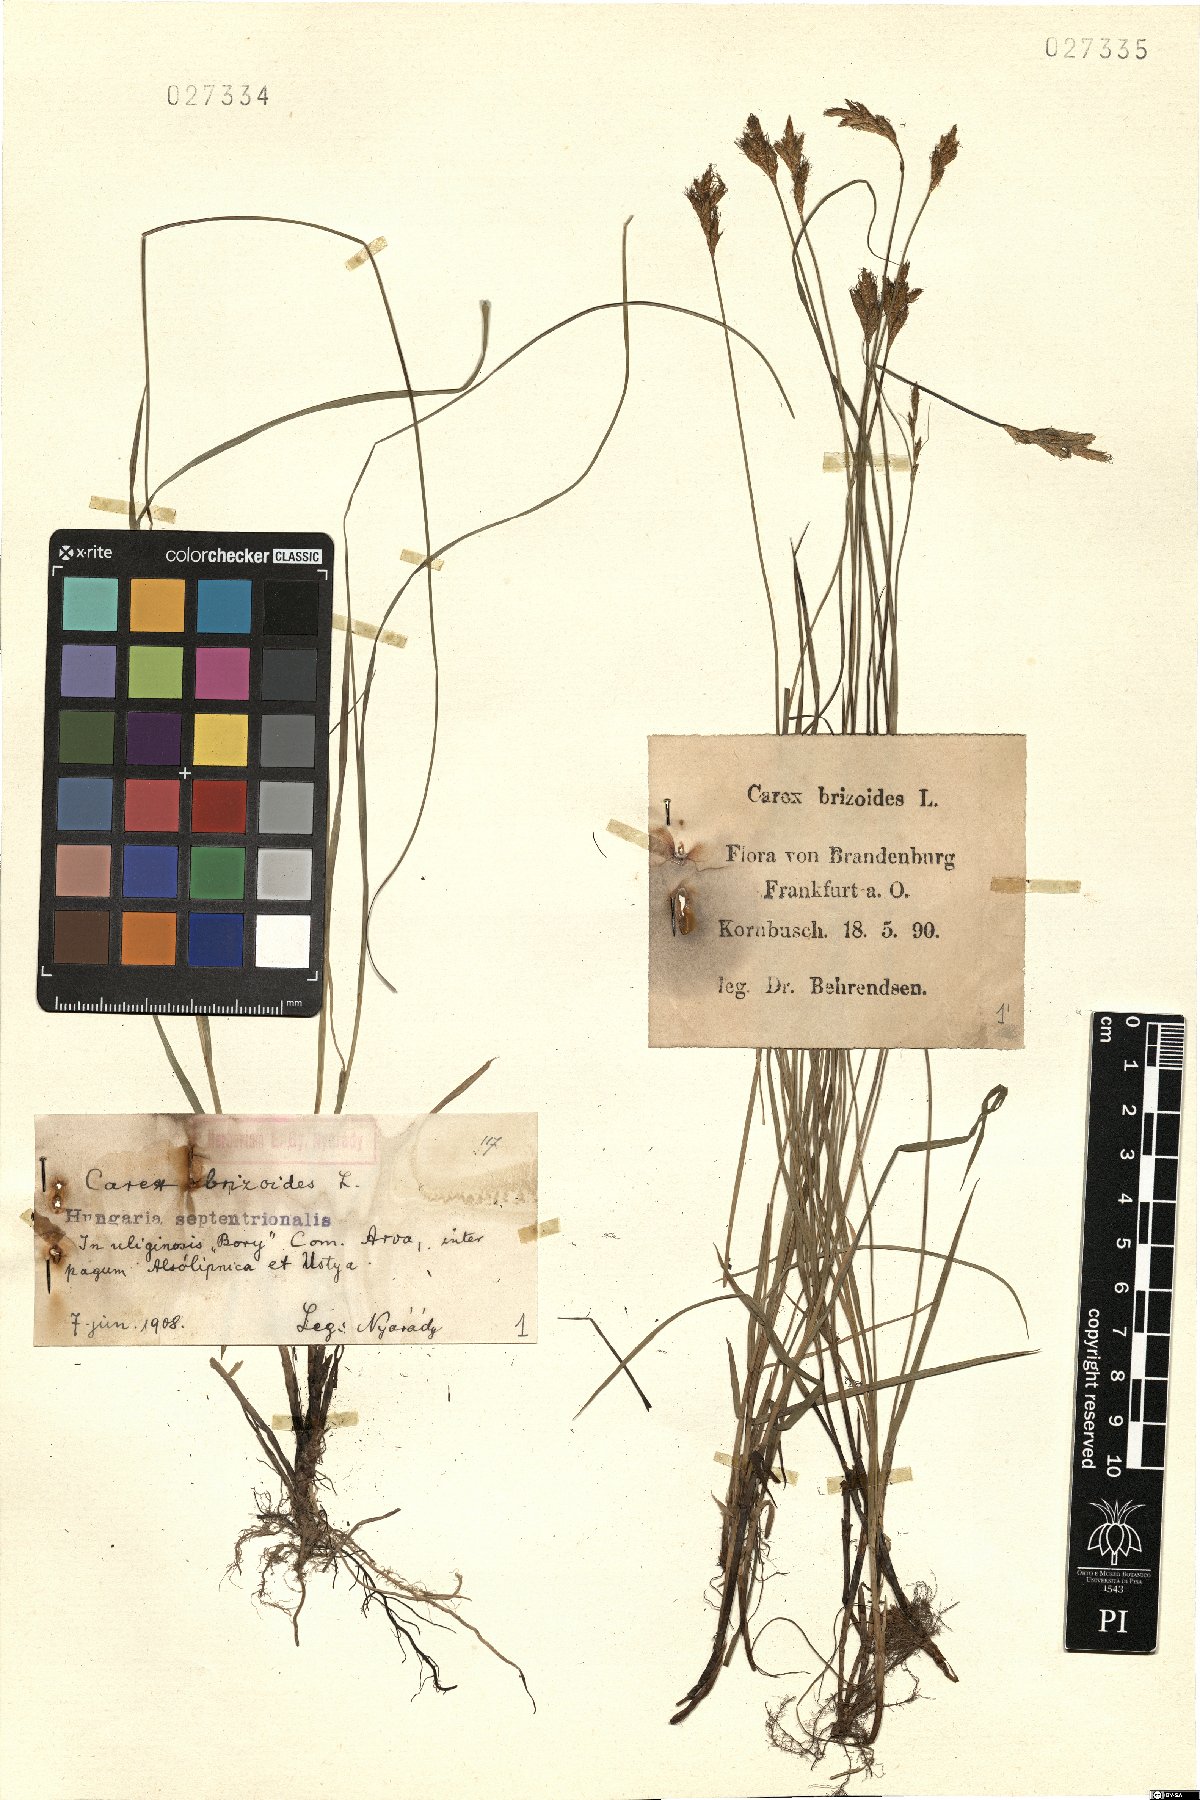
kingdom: Plantae
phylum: Tracheophyta
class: Liliopsida
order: Poales
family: Cyperaceae
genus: Carex
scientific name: Carex brizoides
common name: Quaking-grass sedge
